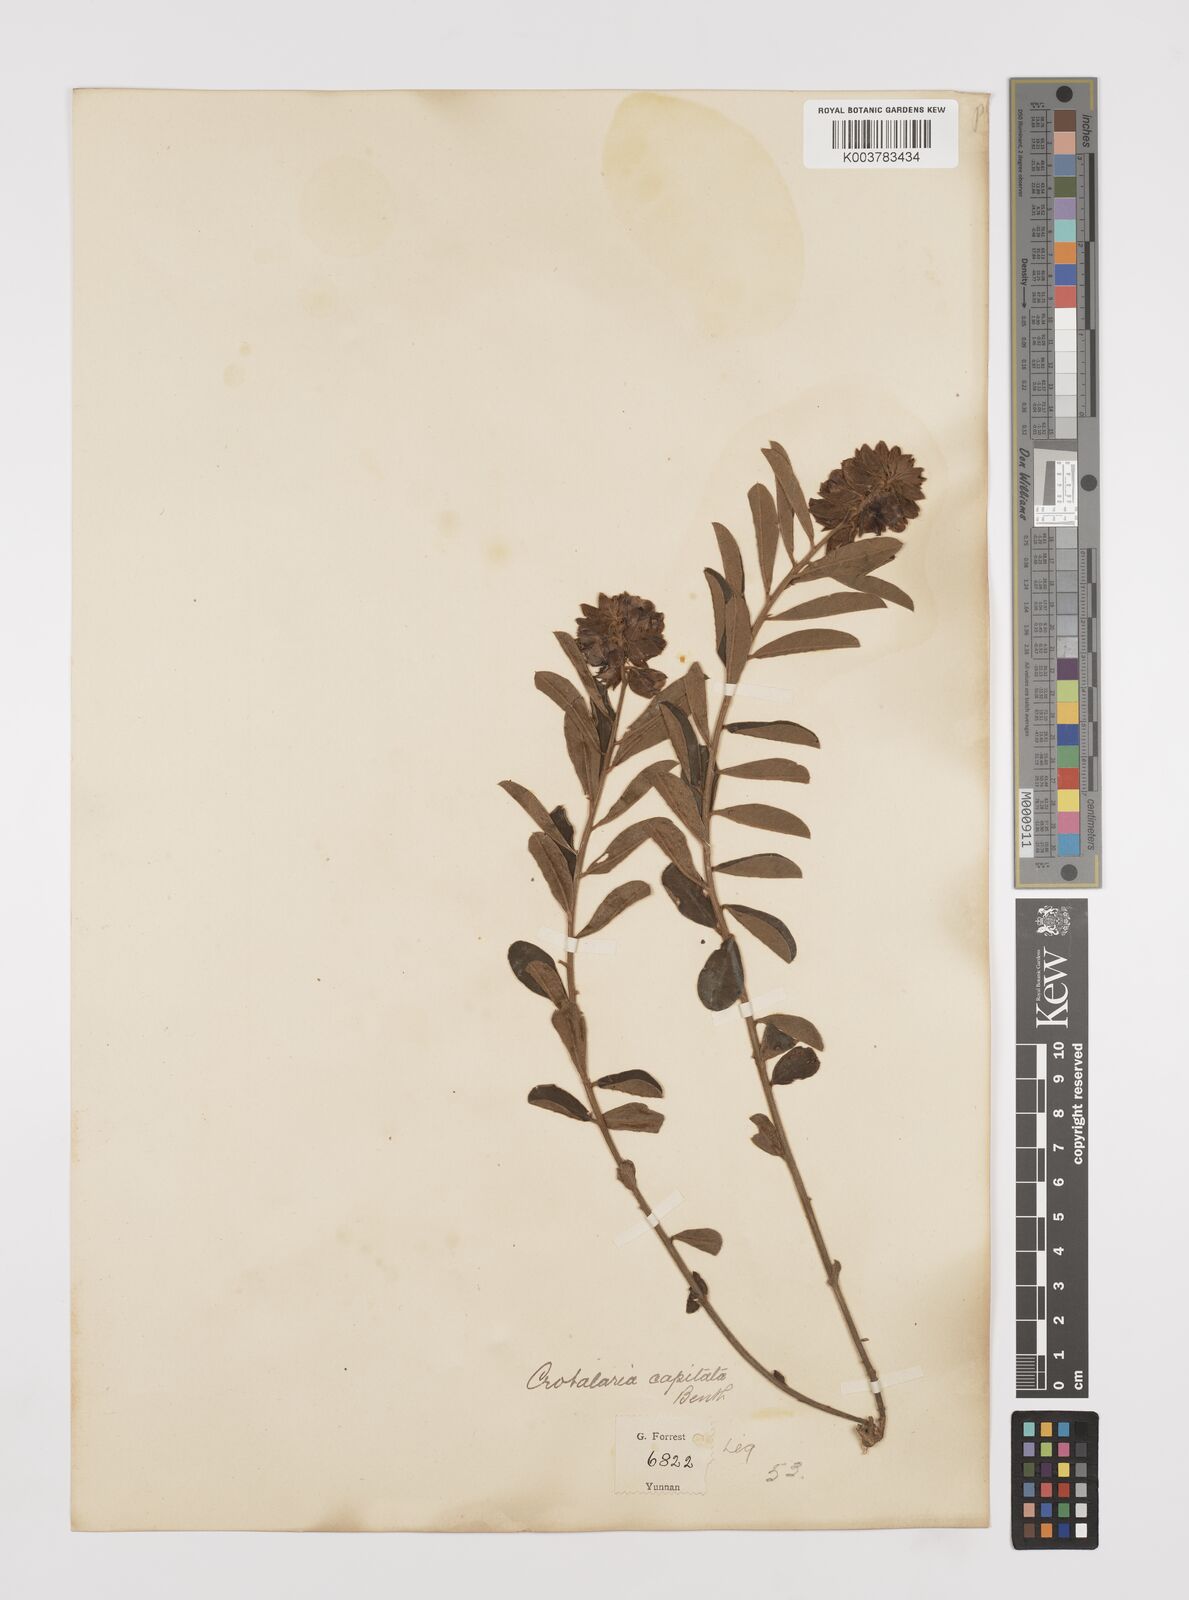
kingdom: Plantae
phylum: Tracheophyta
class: Magnoliopsida
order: Fabales
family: Fabaceae
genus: Liparia
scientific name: Liparia capitata
